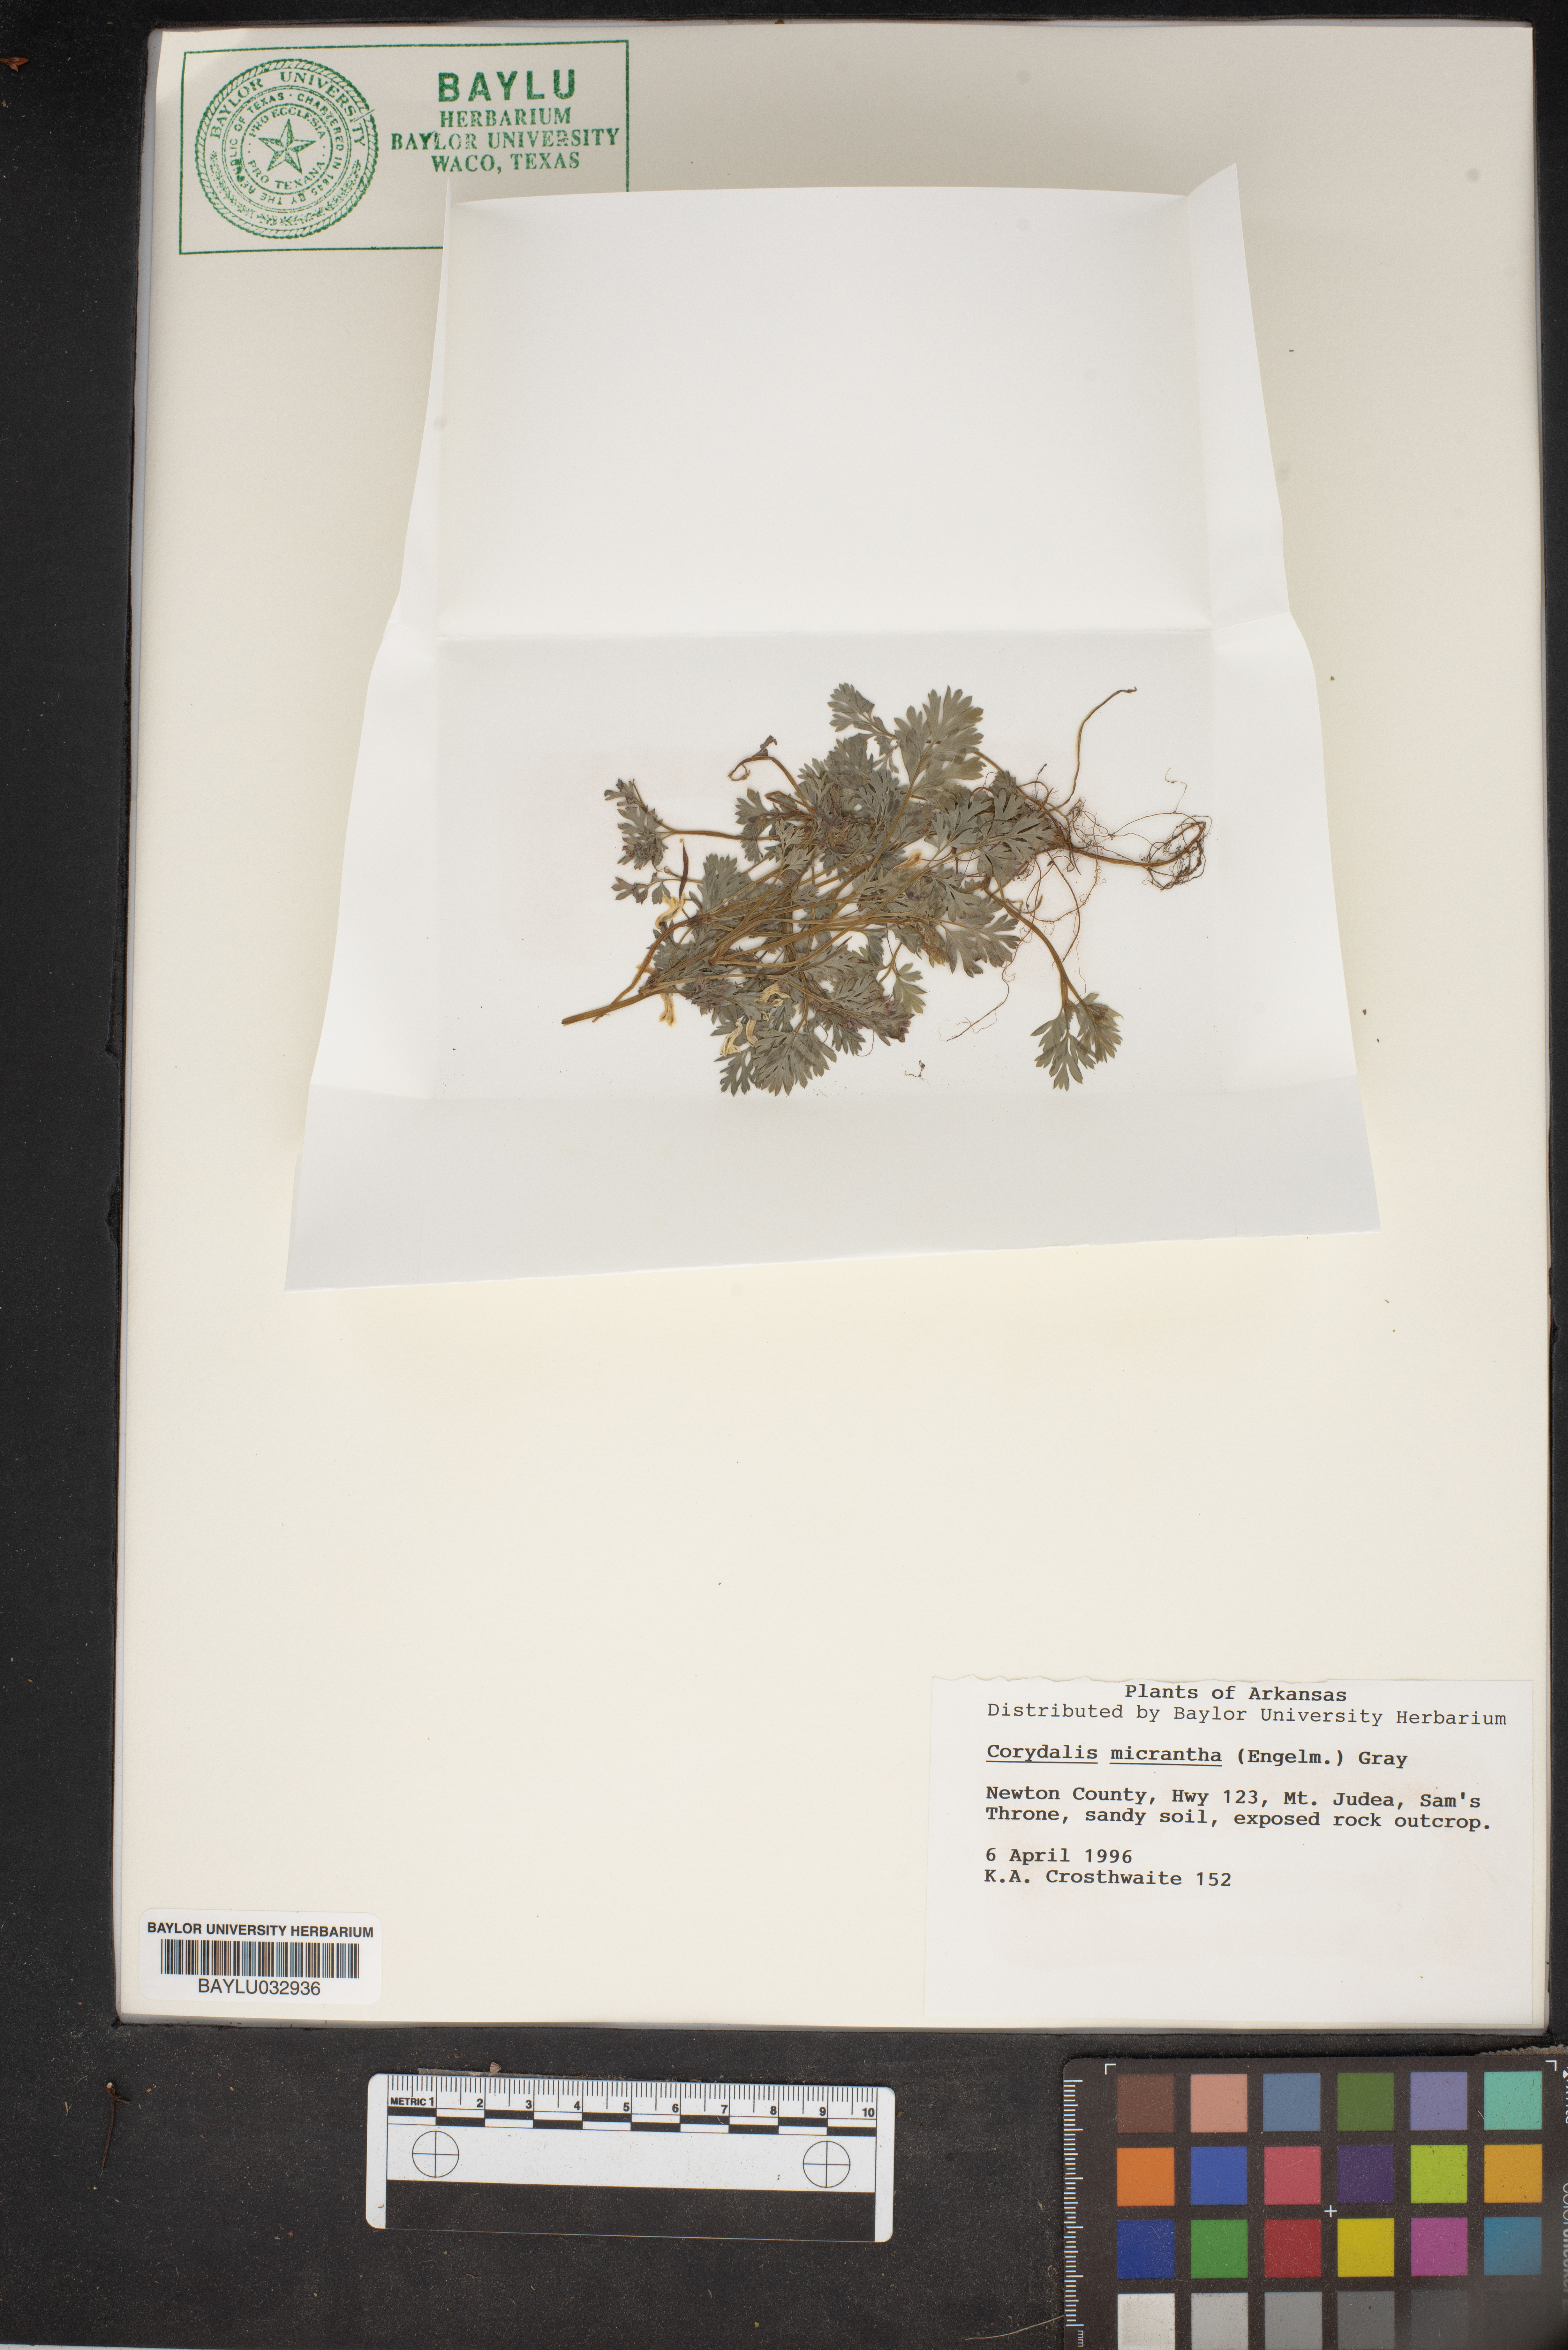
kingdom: Plantae
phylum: Tracheophyta
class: Magnoliopsida
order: Ranunculales
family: Papaveraceae
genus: Corydalis
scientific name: Corydalis micrantha
